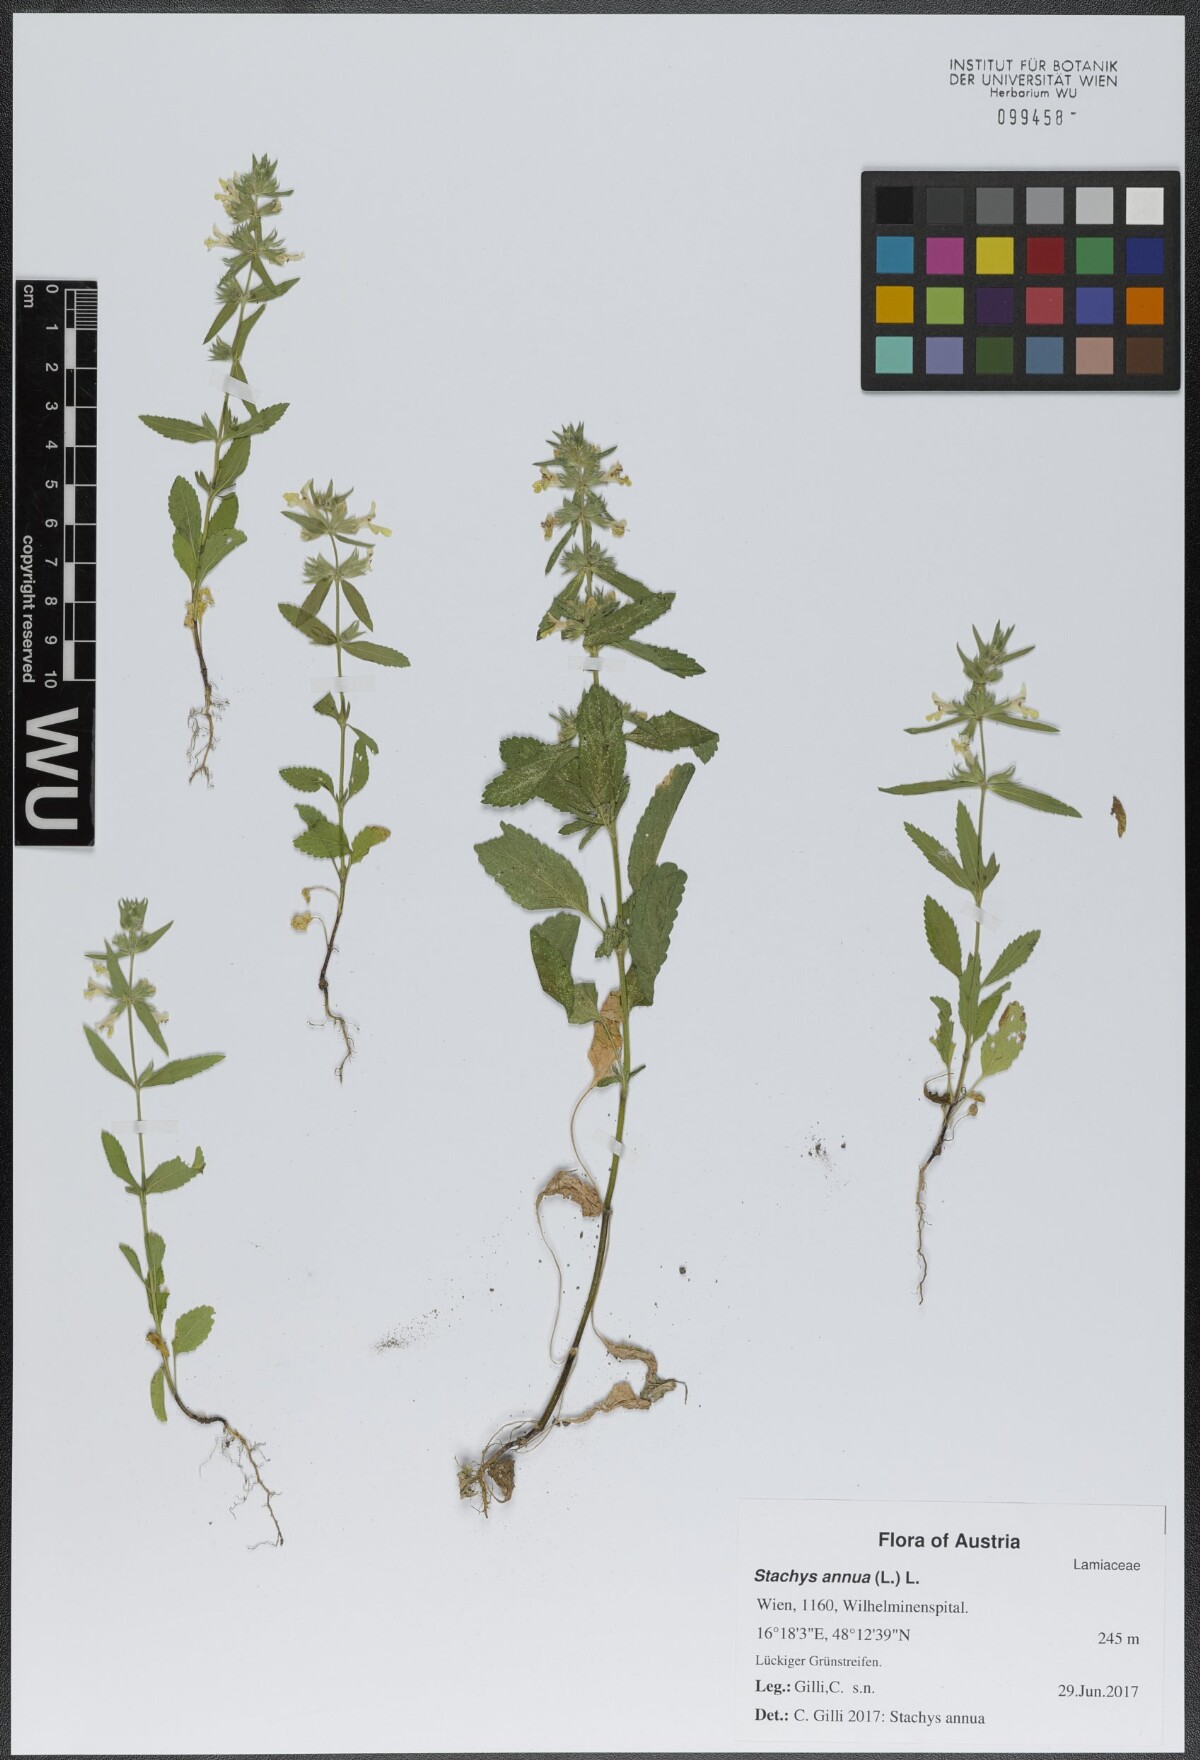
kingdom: Plantae
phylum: Tracheophyta
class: Magnoliopsida
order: Lamiales
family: Lamiaceae
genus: Stachys
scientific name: Stachys annua
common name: Annual yellow-woundwort
